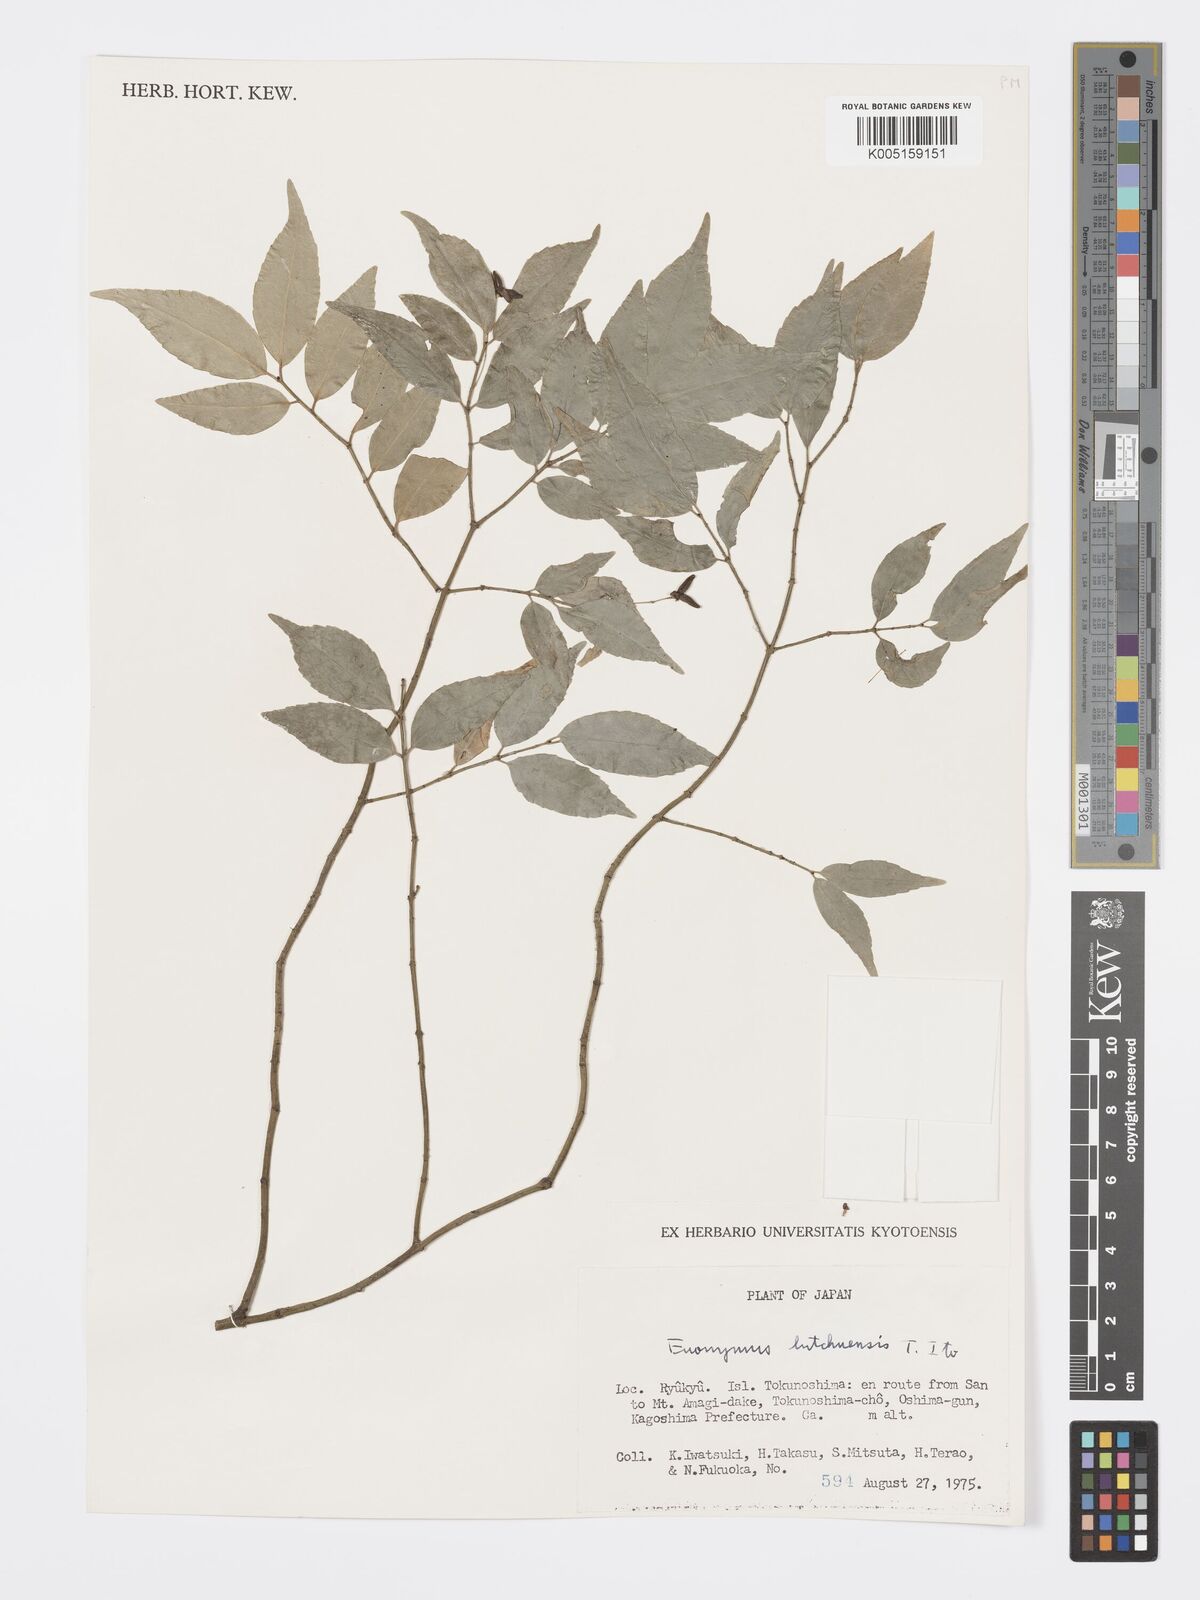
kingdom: Plantae
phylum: Tracheophyta
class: Magnoliopsida
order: Celastrales
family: Celastraceae
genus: Euonymus
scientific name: Euonymus lutchuensis
